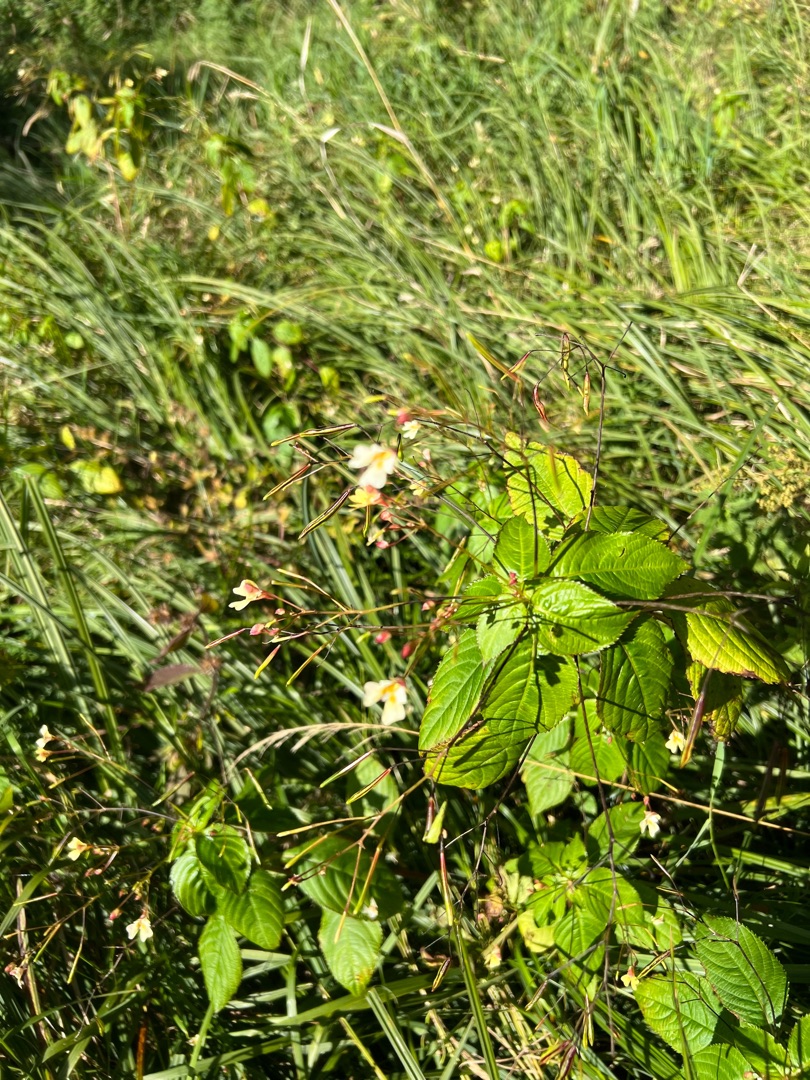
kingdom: Plantae
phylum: Tracheophyta
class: Magnoliopsida
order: Ericales
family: Balsaminaceae
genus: Impatiens
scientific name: Impatiens parviflora
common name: Småblomstret balsamin
